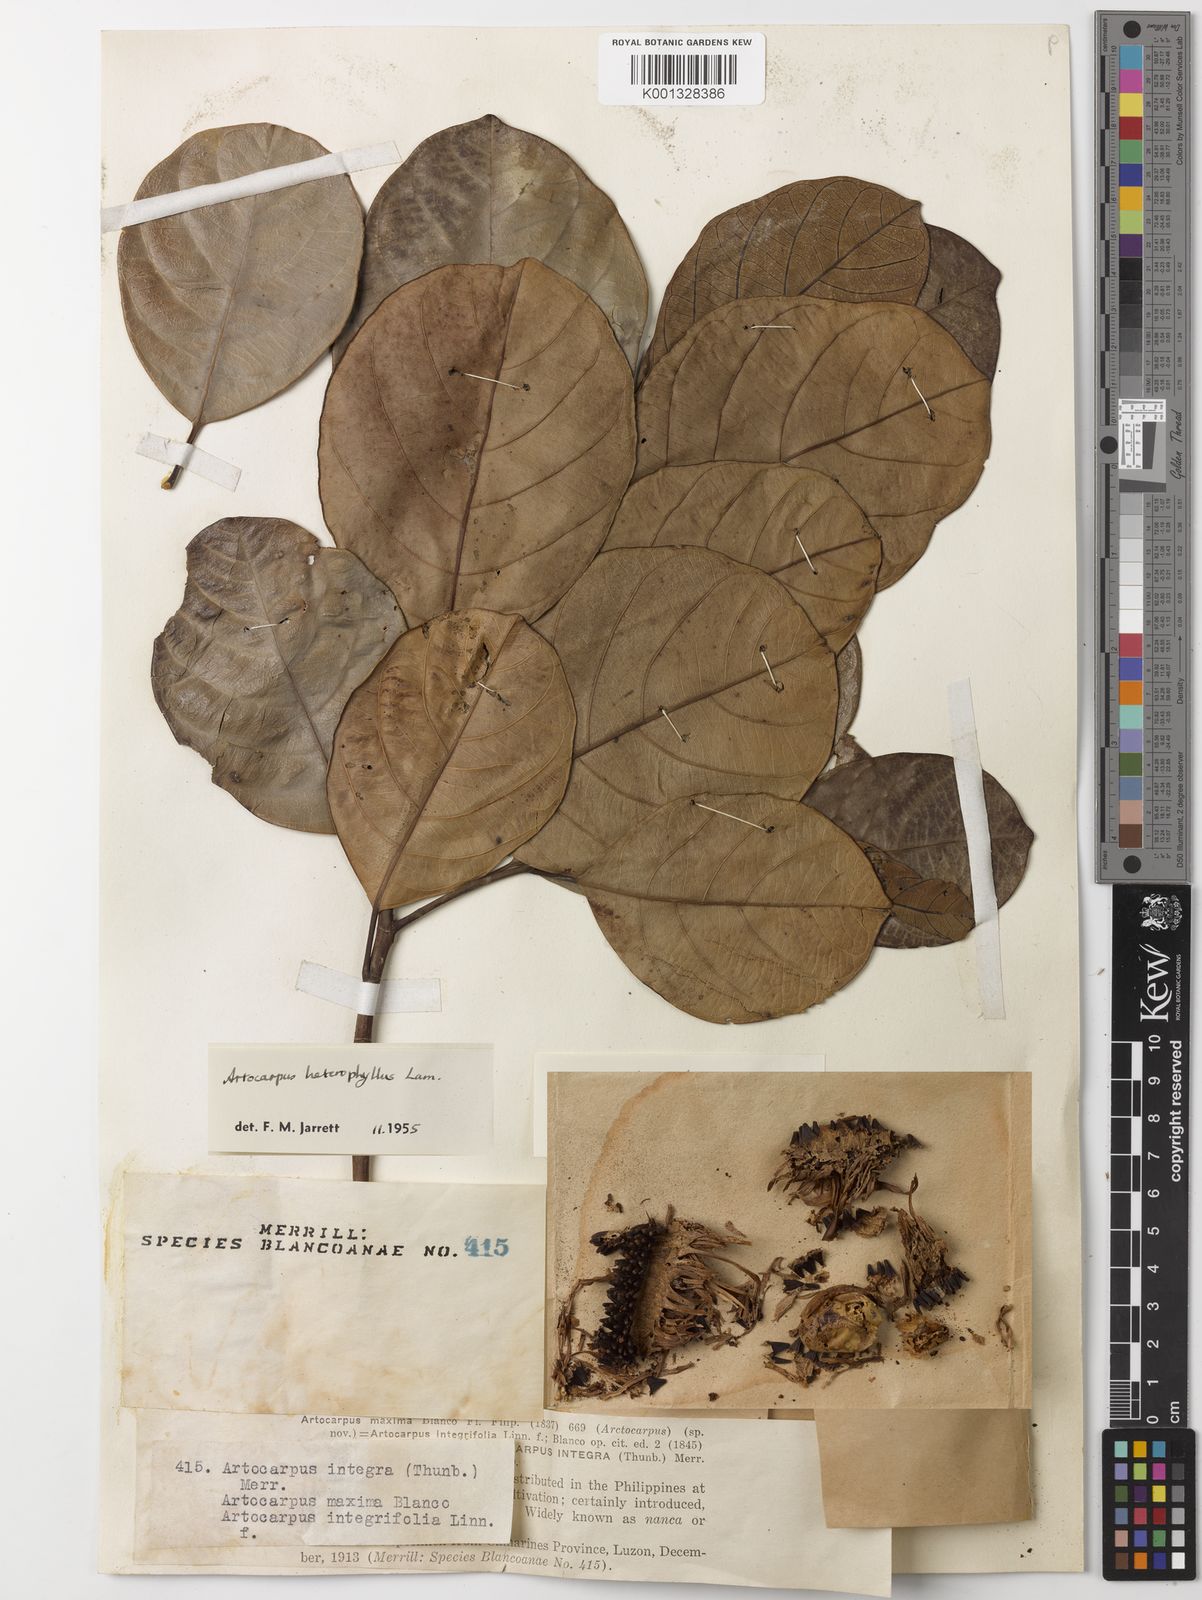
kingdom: Plantae
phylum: Tracheophyta
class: Magnoliopsida
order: Rosales
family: Moraceae
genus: Artocarpus
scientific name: Artocarpus heterophyllus
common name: Jackfruit
